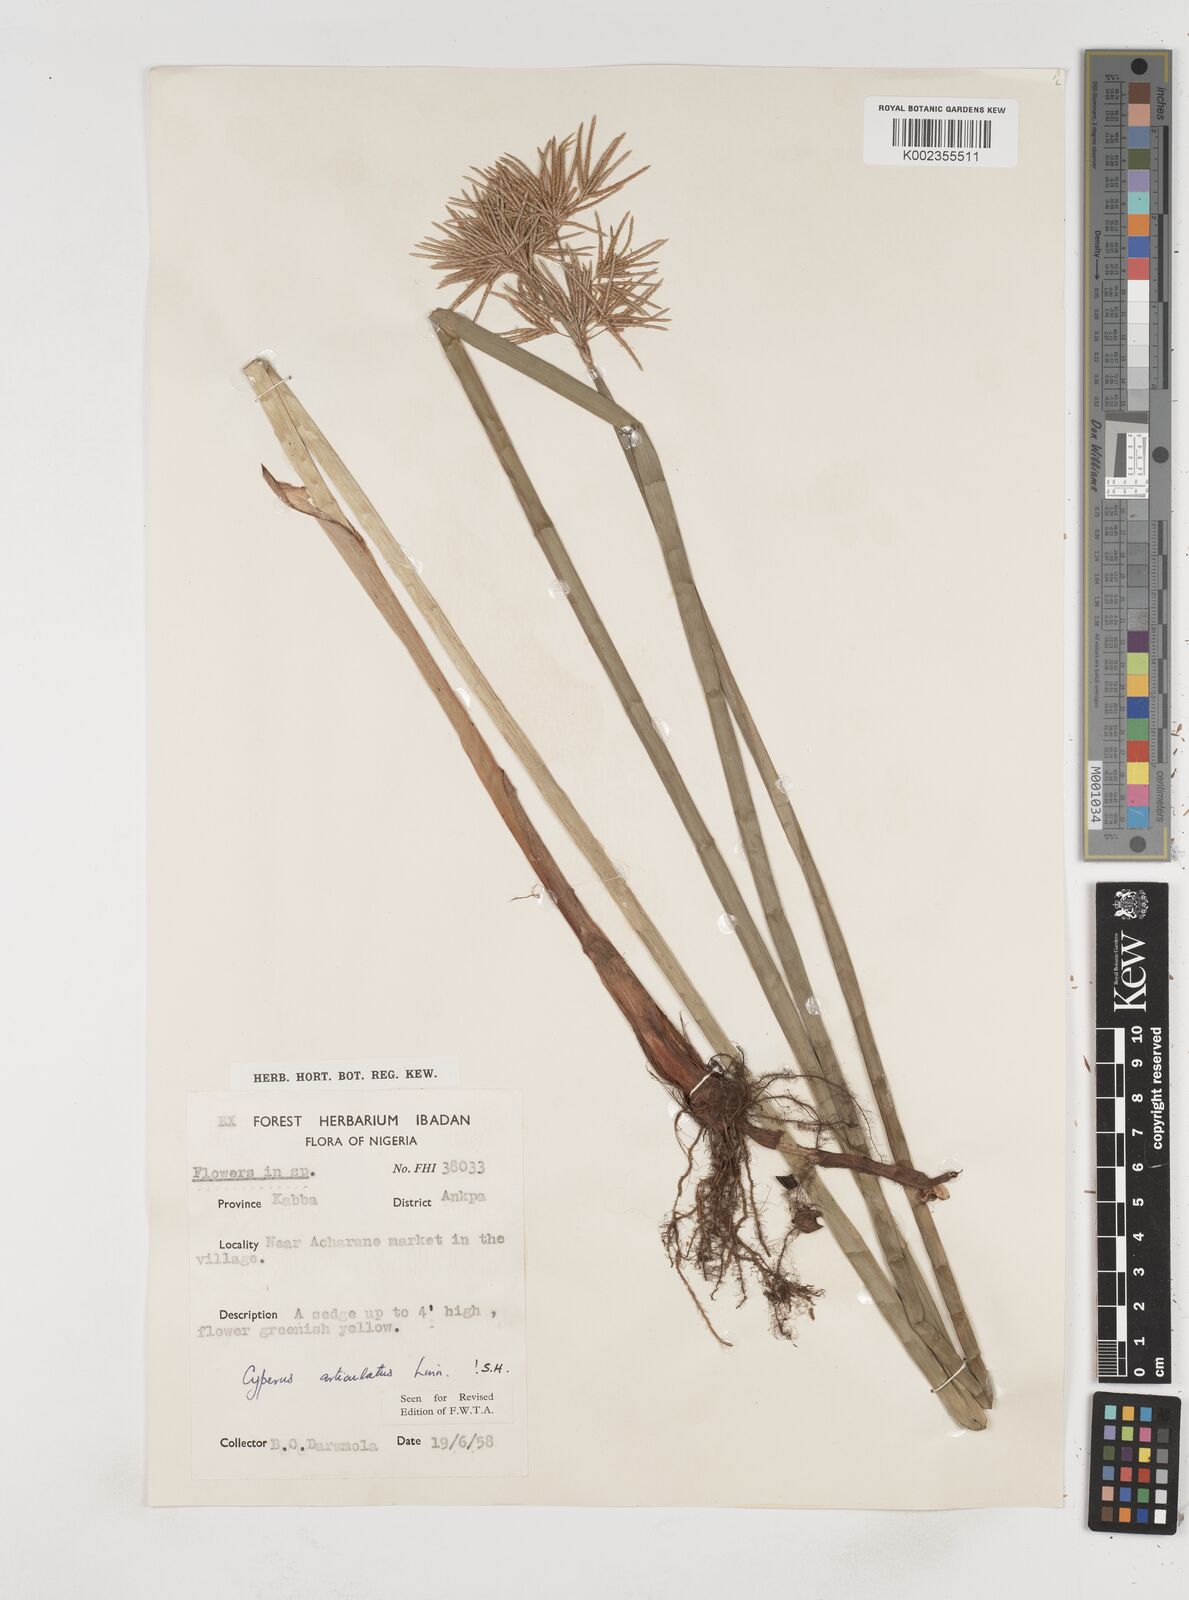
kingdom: Plantae
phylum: Tracheophyta
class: Liliopsida
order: Poales
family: Cyperaceae
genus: Cyperus
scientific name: Cyperus articulatus
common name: Jointed flatsedge
